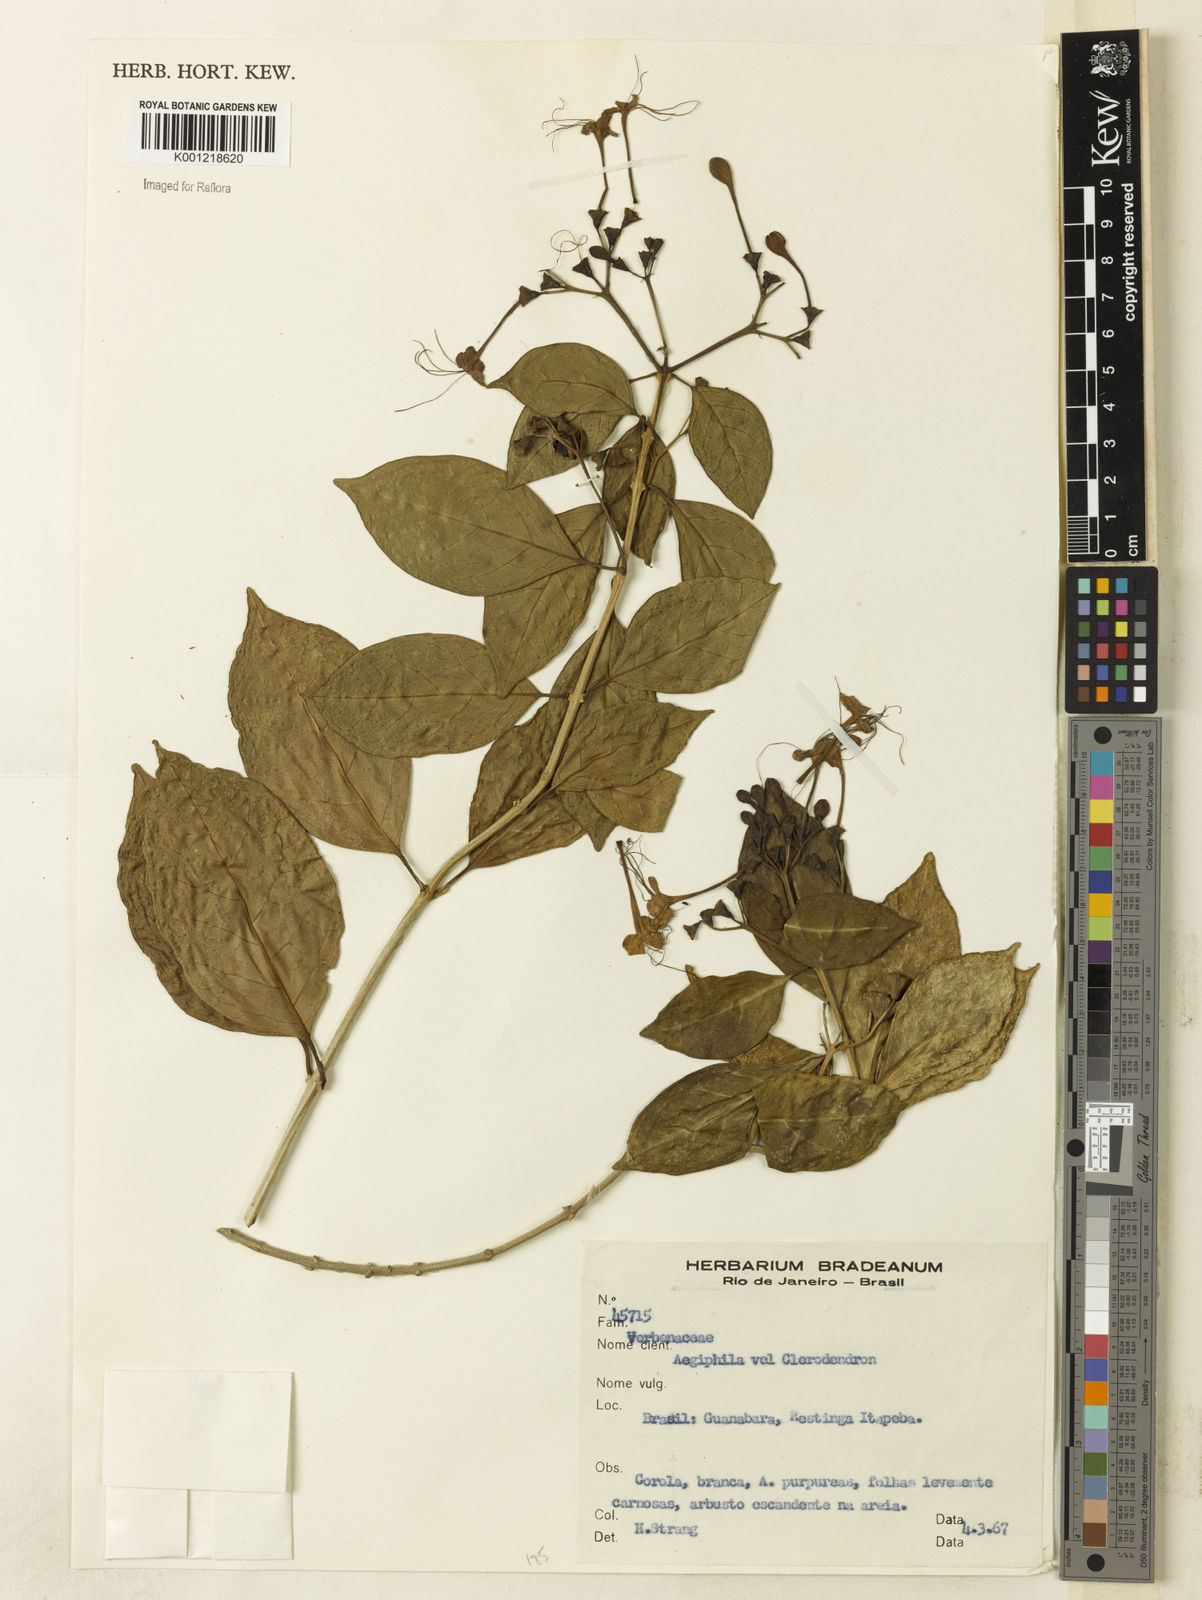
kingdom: Plantae
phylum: Tracheophyta
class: Magnoliopsida
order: Lamiales
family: Lamiaceae
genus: Clerodendrum
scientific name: Clerodendrum
